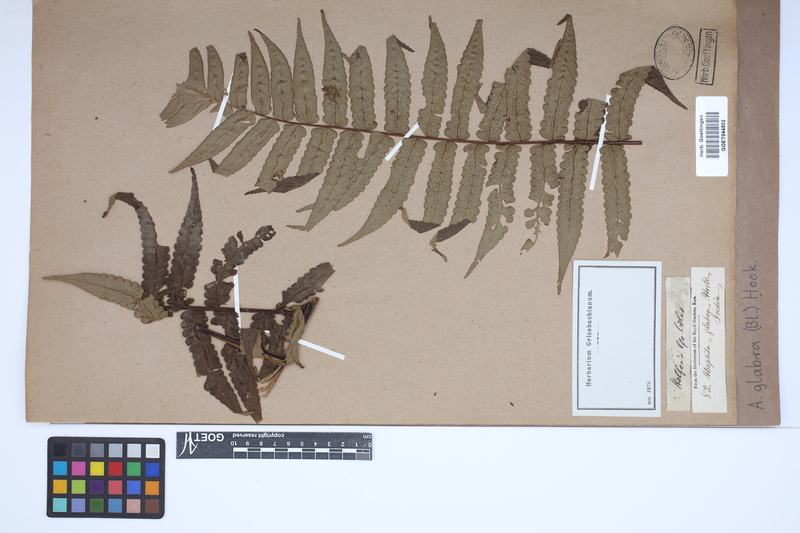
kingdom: Plantae
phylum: Tracheophyta
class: Polypodiopsida
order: Cyatheales
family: Cyatheaceae
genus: Gymnosphaera
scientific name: Gymnosphaera glabra
